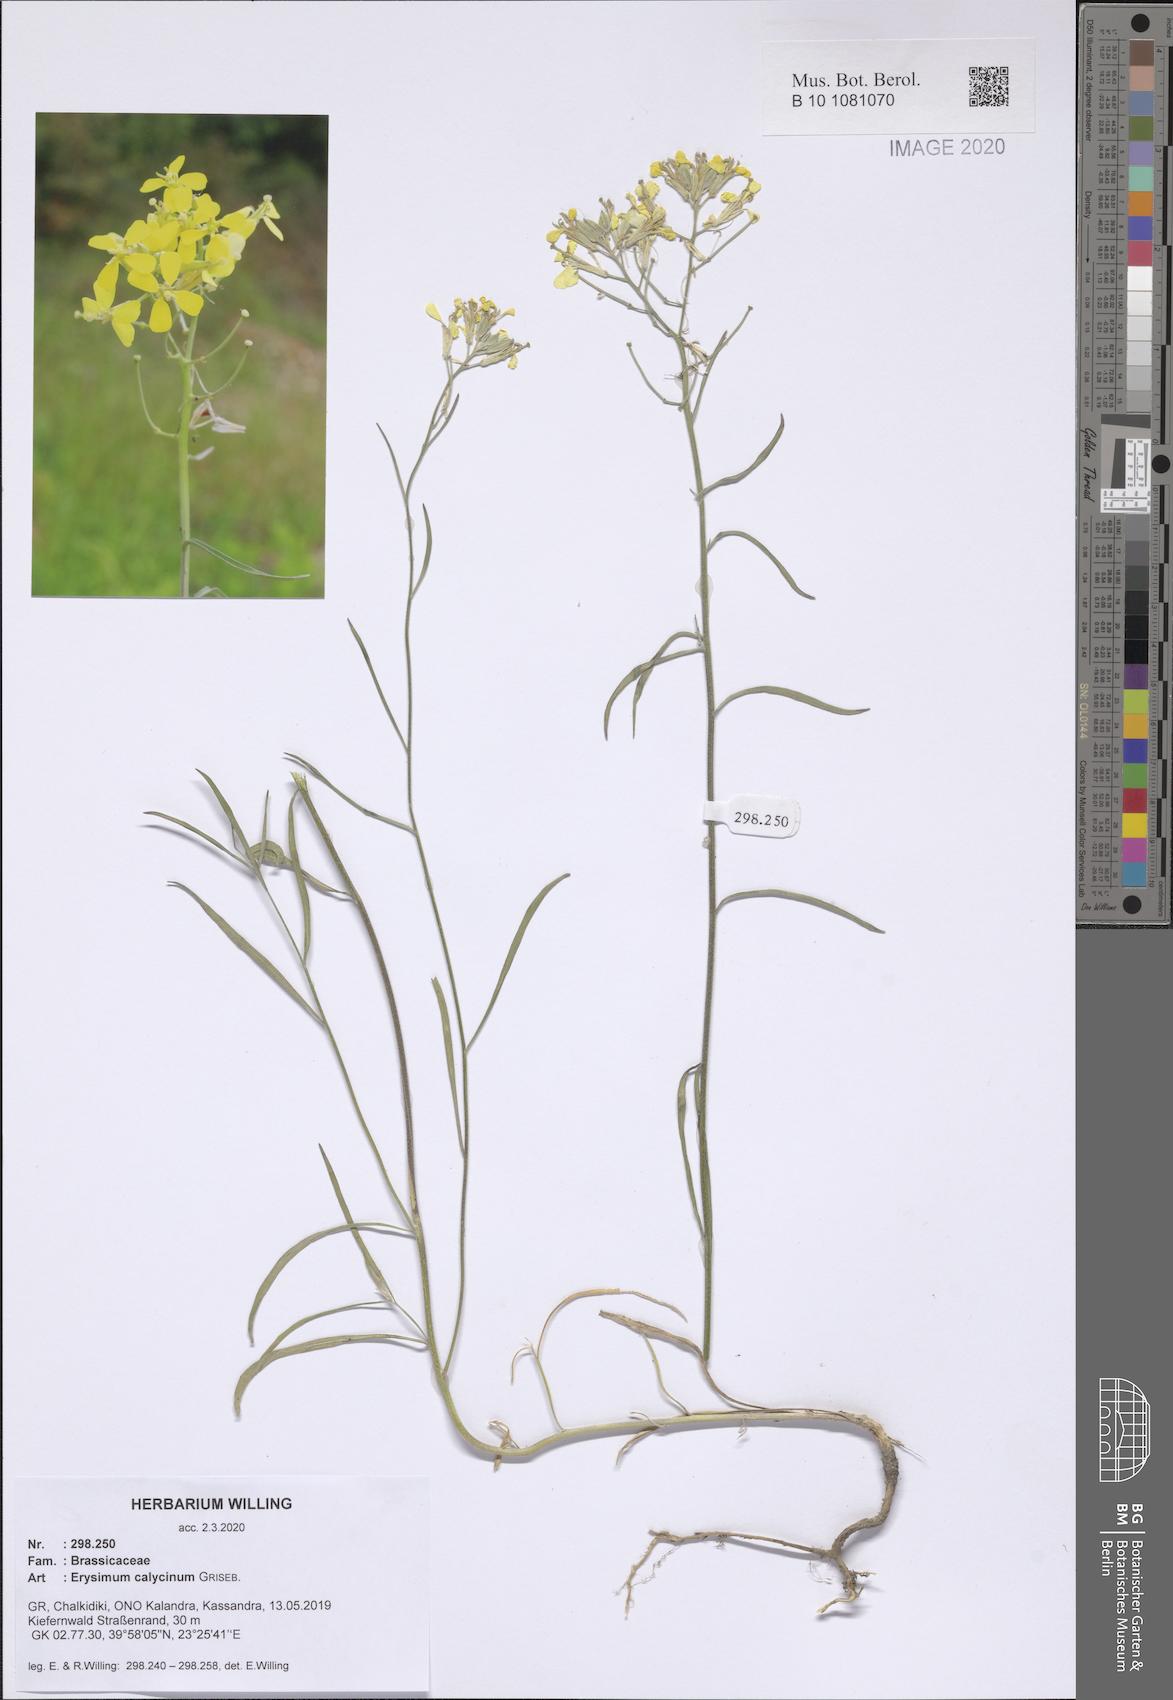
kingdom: Plantae
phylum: Tracheophyta
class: Magnoliopsida
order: Brassicales
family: Brassicaceae
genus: Erysimum
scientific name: Erysimum calycinum
